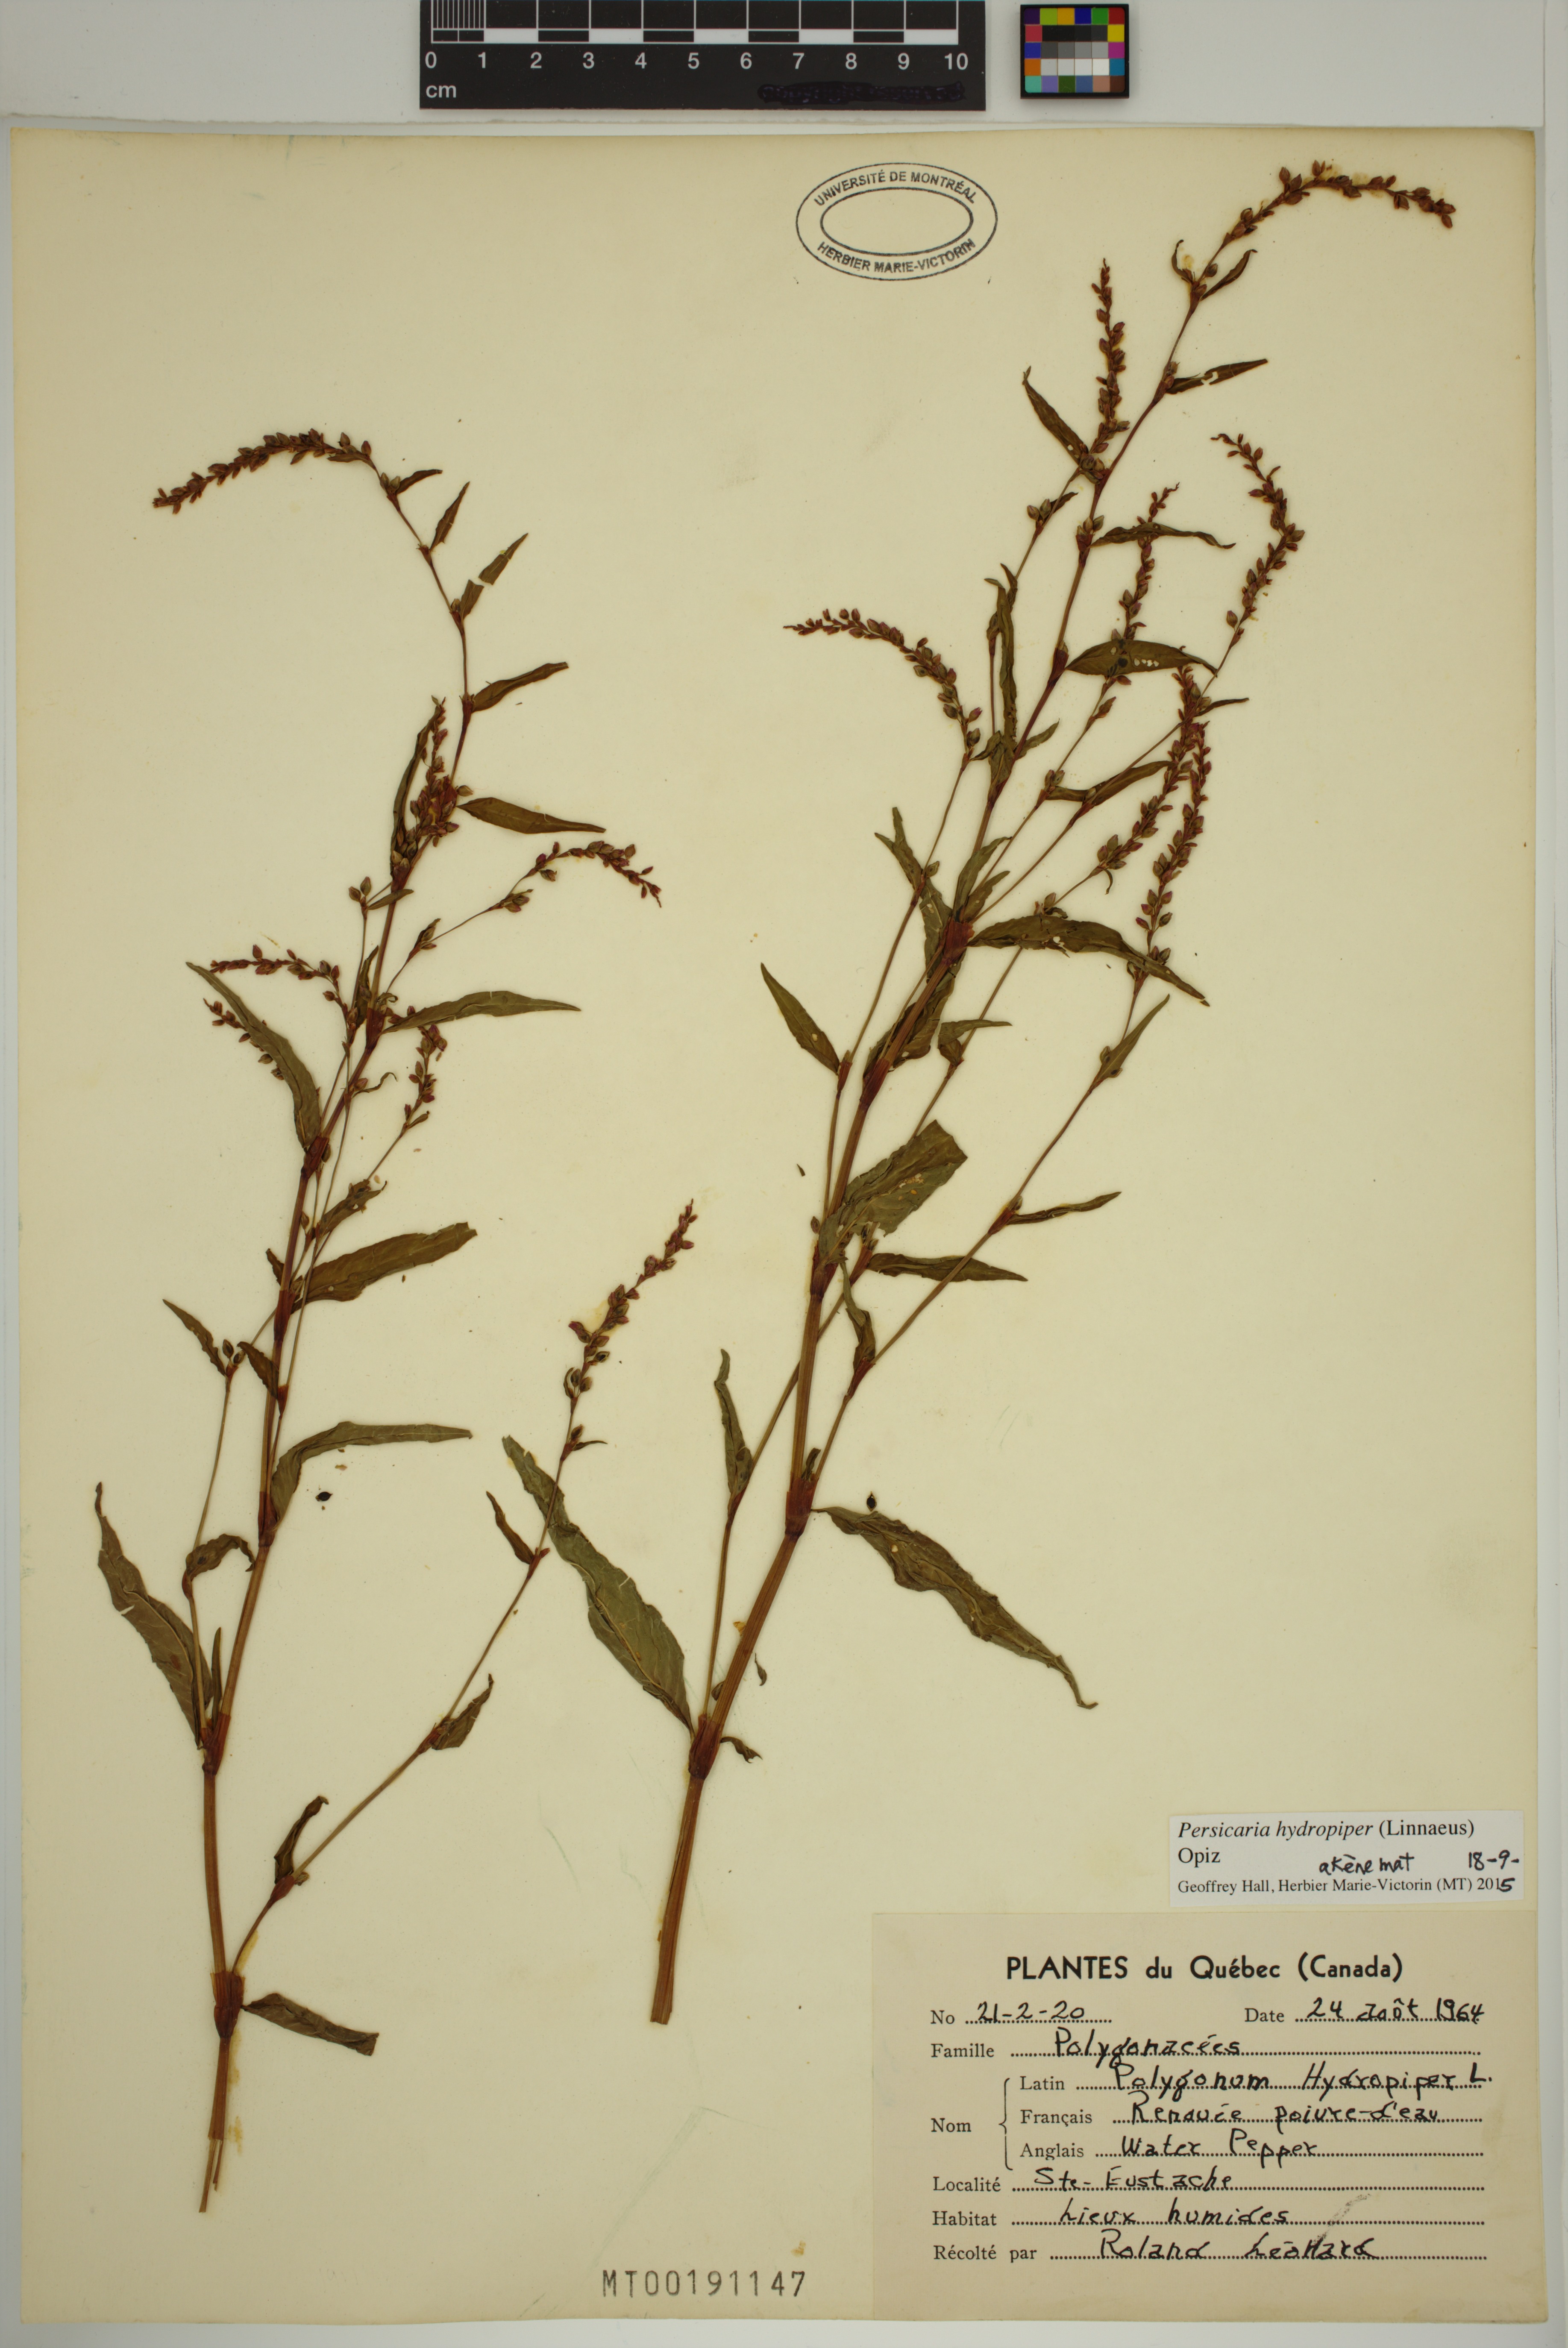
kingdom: Plantae
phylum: Tracheophyta
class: Magnoliopsida
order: Caryophyllales
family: Polygonaceae
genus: Persicaria
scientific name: Persicaria hydropiper
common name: Water-pepper
